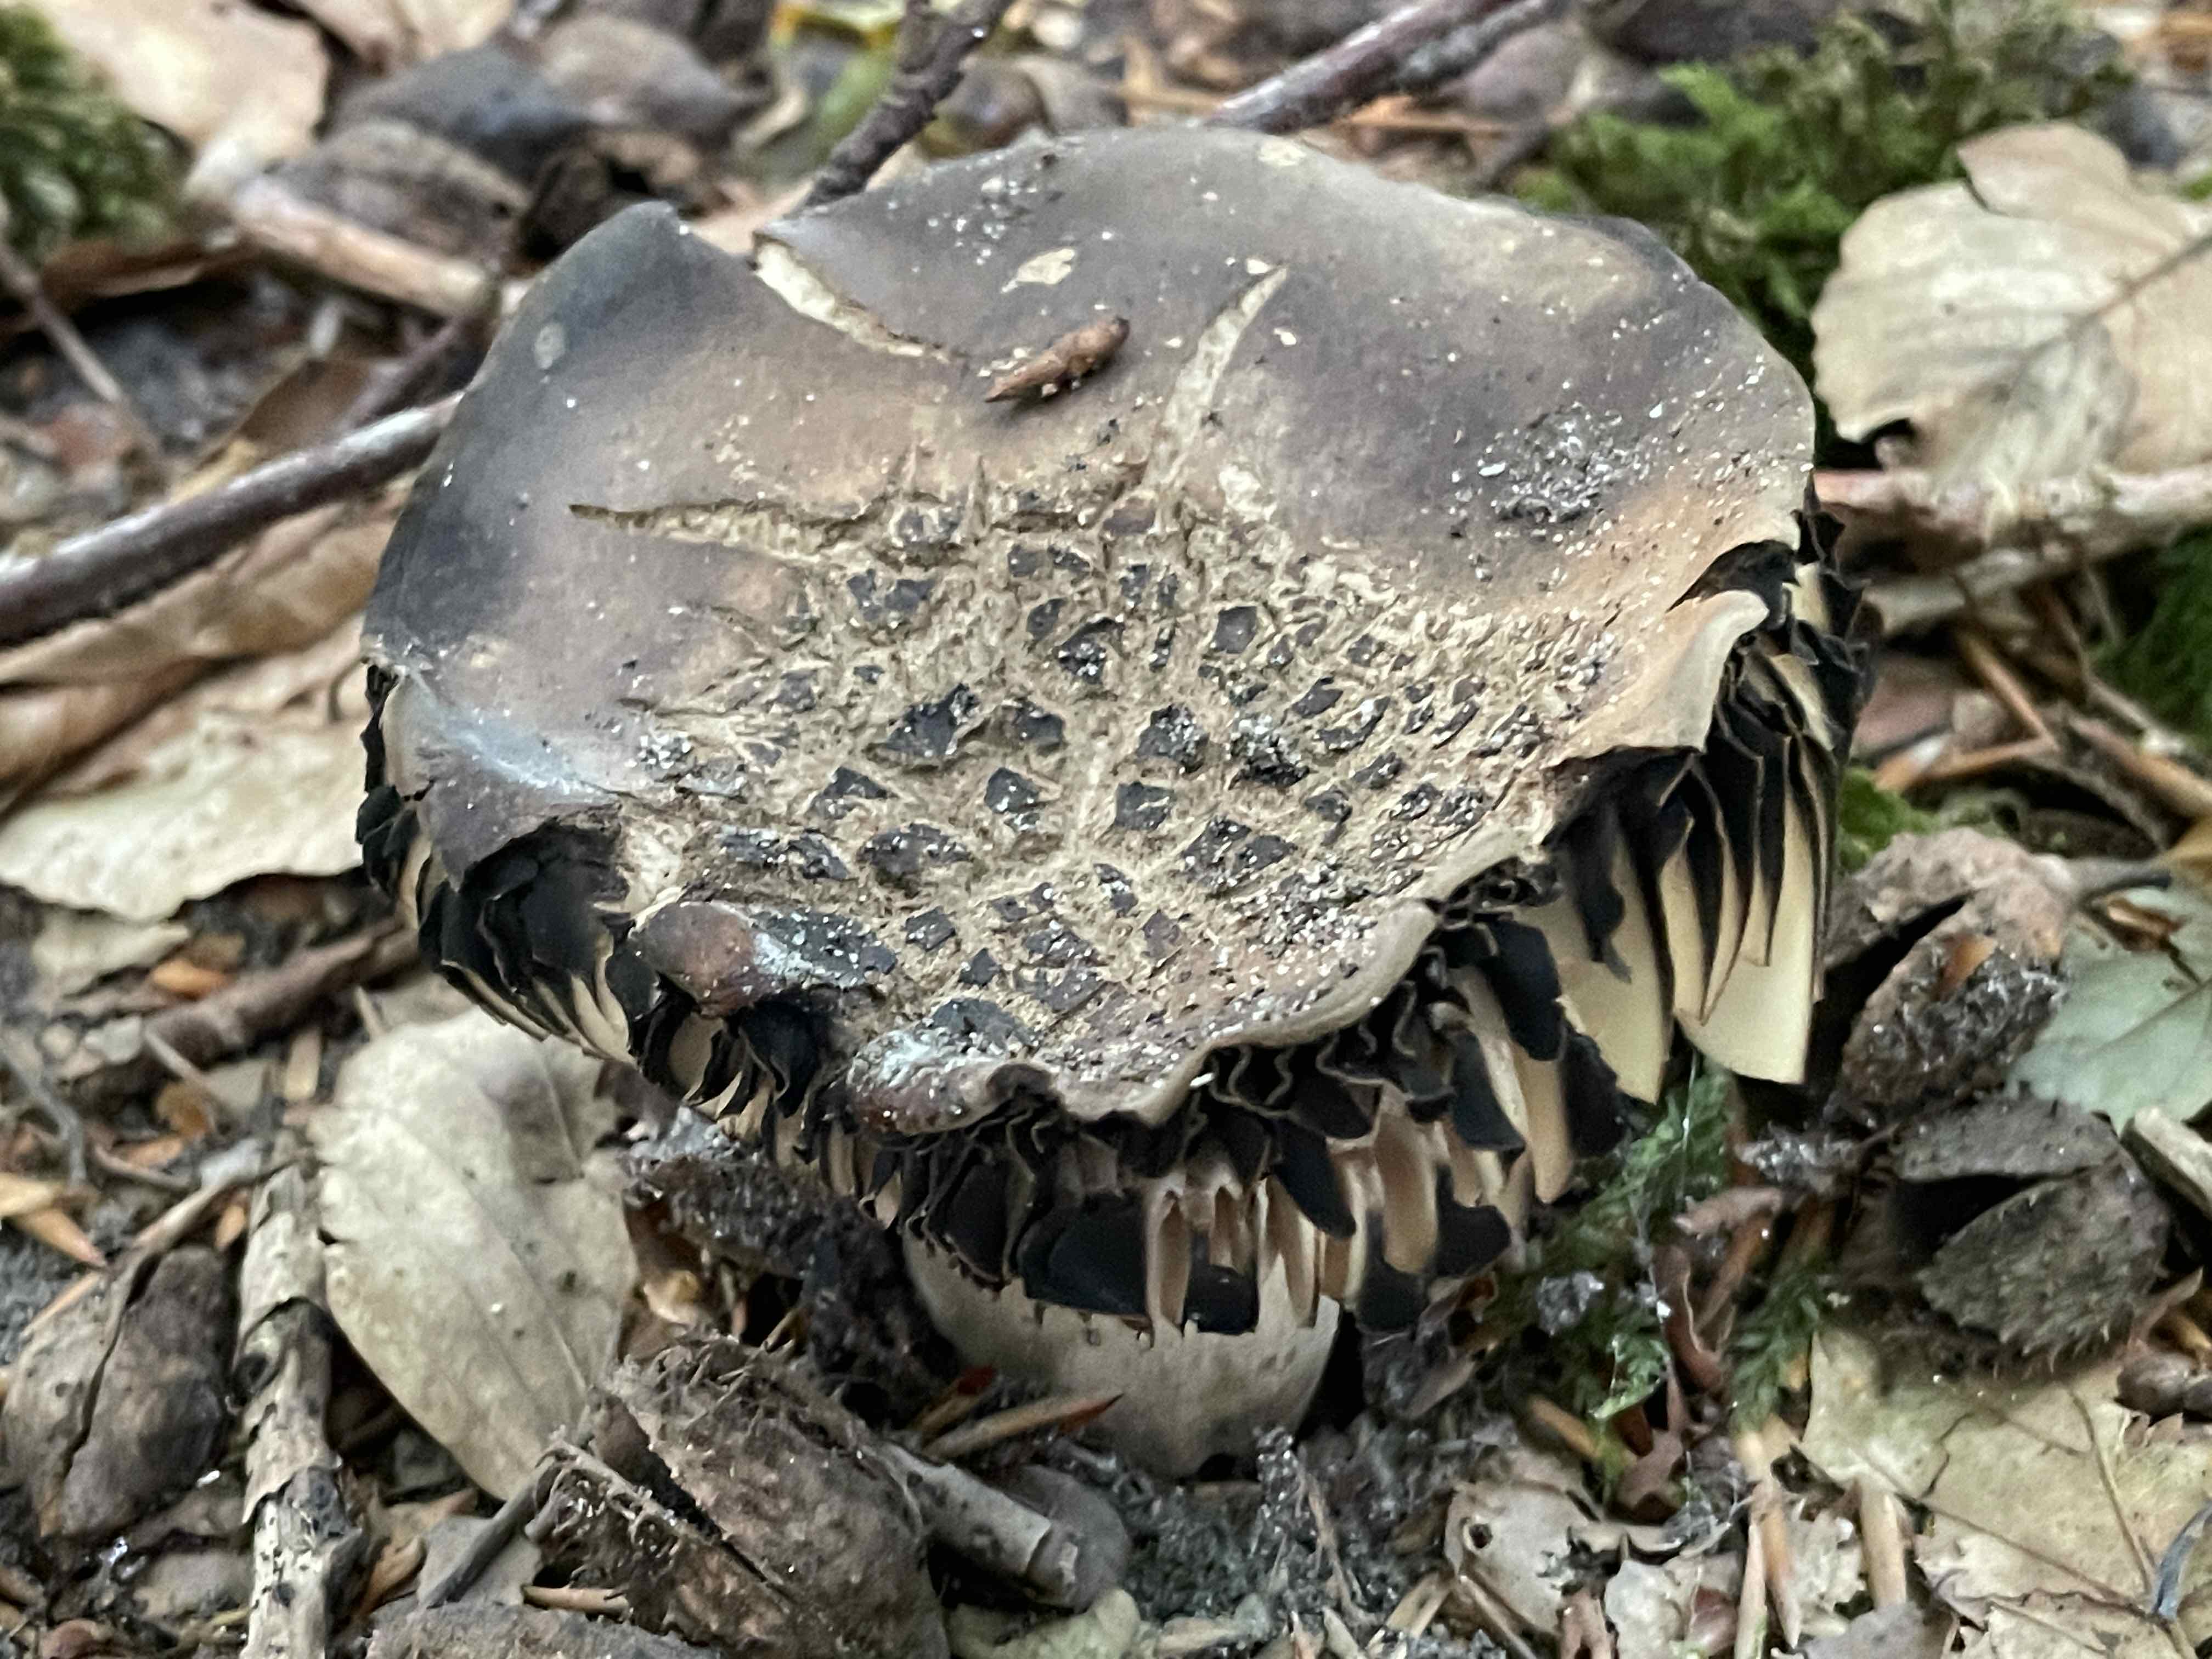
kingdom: Fungi
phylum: Basidiomycota
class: Agaricomycetes
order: Russulales
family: Russulaceae
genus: Russula
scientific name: Russula adusta
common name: sværtende skørhat
